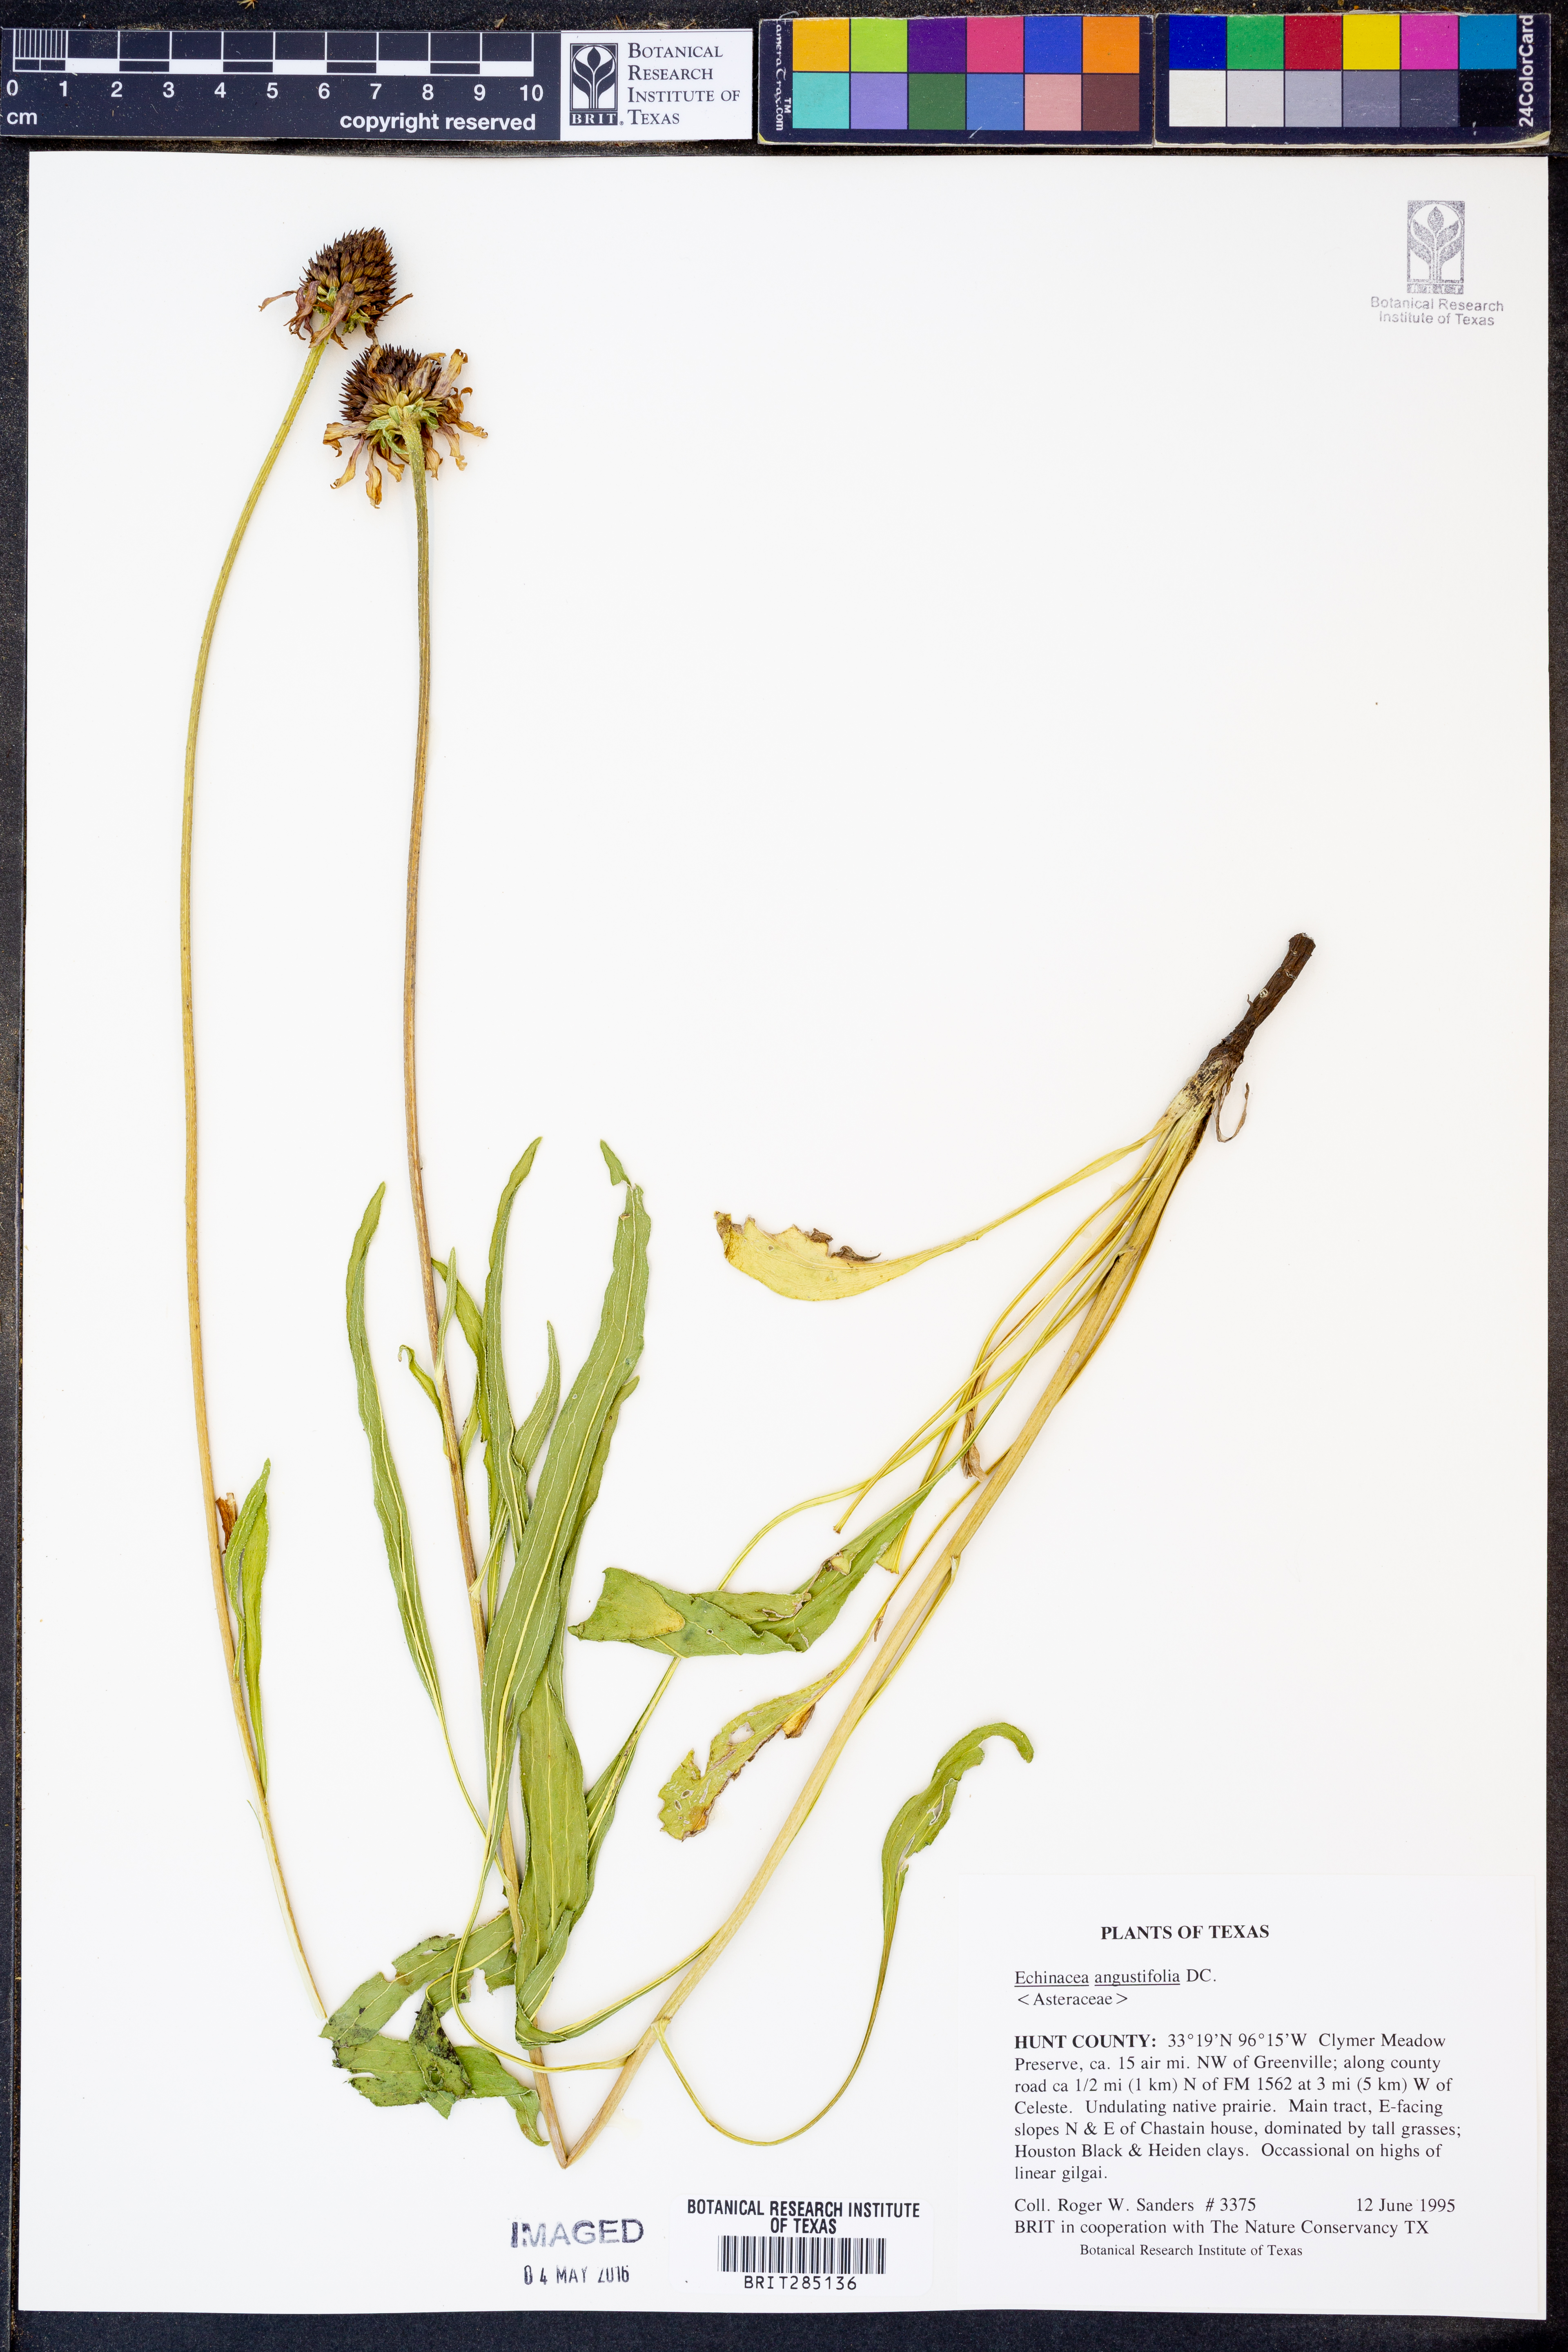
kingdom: Plantae
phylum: Tracheophyta
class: Magnoliopsida
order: Asterales
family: Asteraceae
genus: Echinacea
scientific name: Echinacea angustifolia
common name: Black-sampson echinacea
